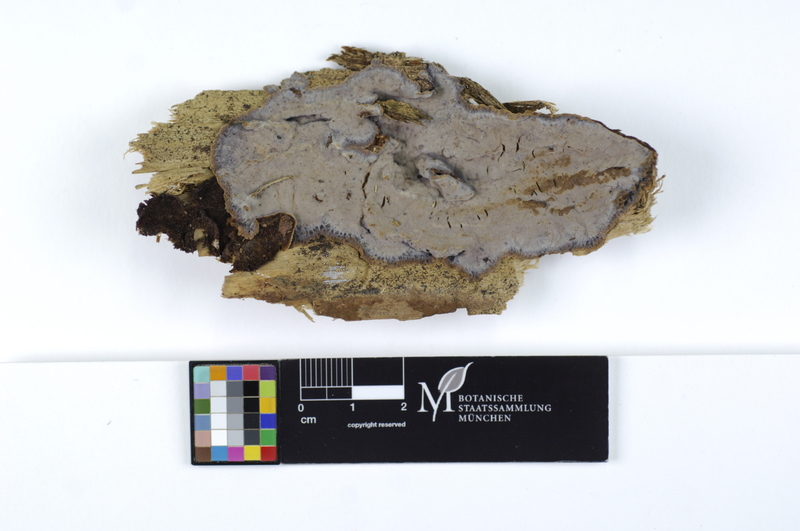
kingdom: Plantae
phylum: Tracheophyta
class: Pinopsida
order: Pinales
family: Pinaceae
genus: Picea
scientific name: Picea
